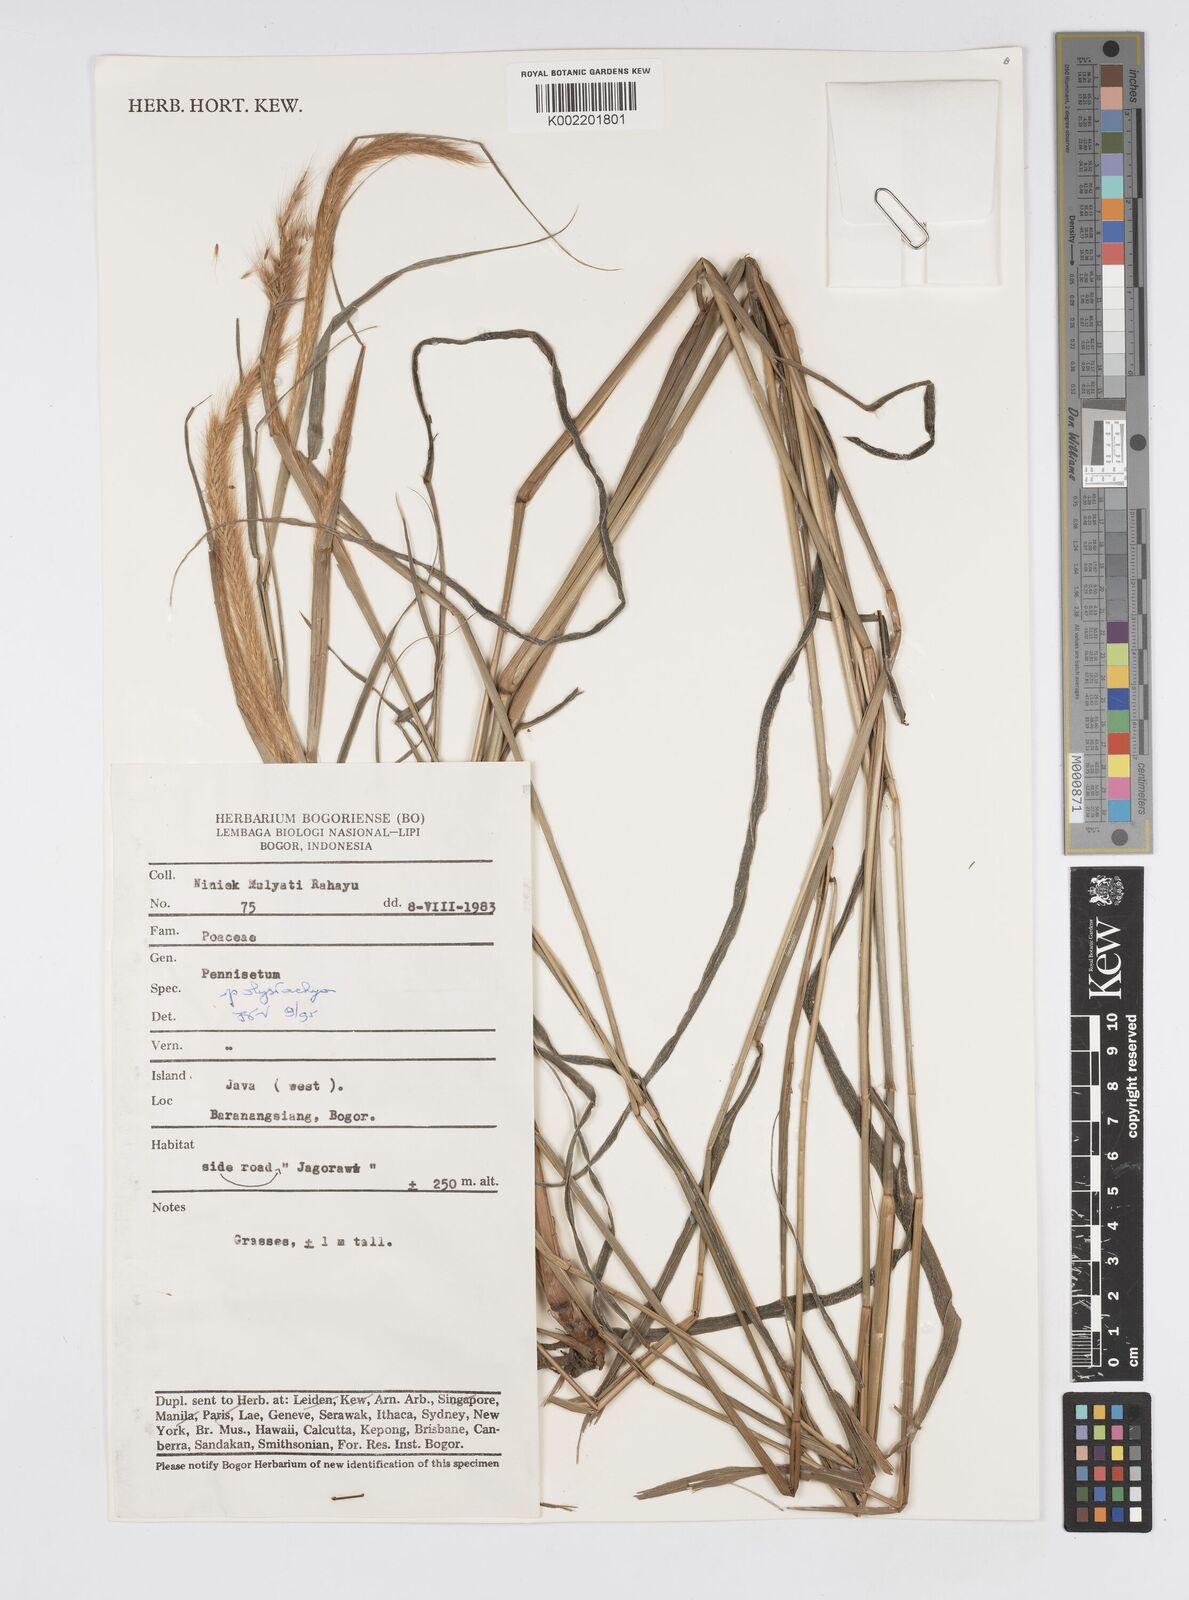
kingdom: Plantae
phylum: Tracheophyta
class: Liliopsida
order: Poales
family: Poaceae
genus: Setaria
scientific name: Setaria parviflora
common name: Knotroot bristle-grass
